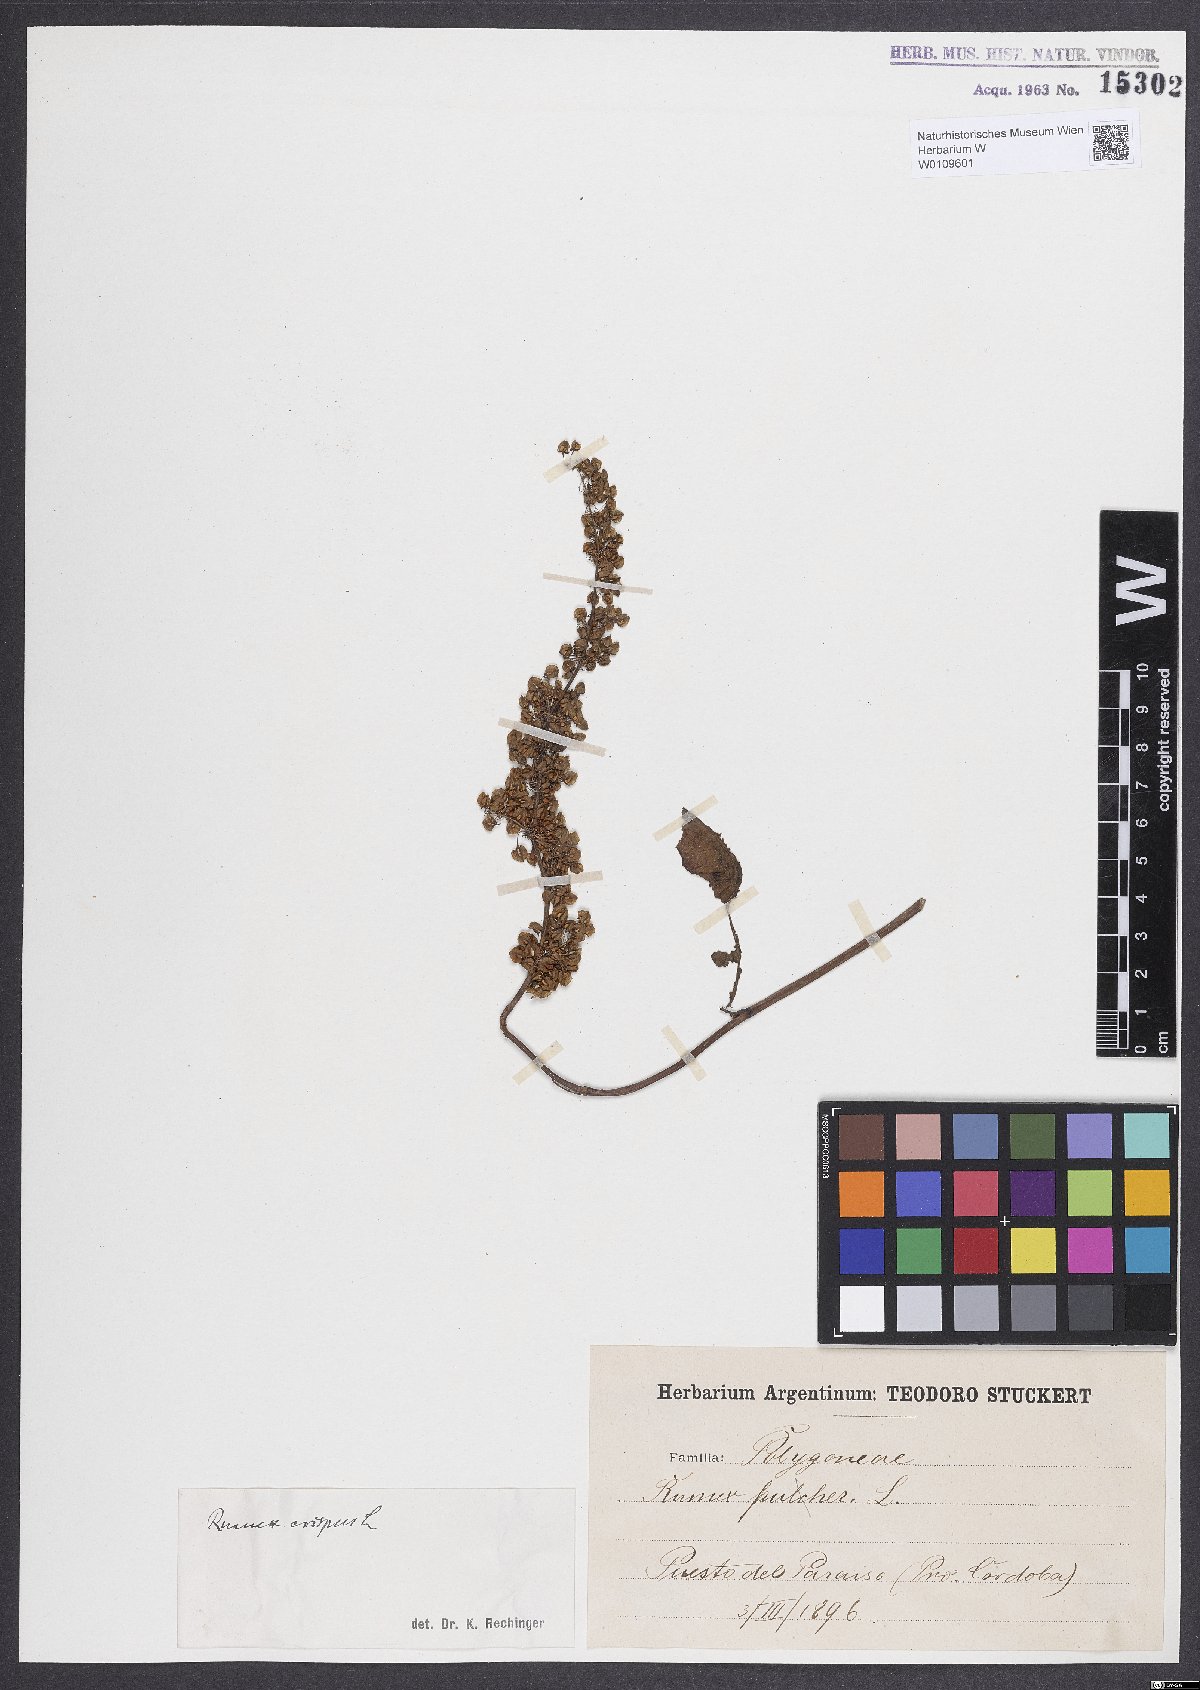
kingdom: Plantae
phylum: Tracheophyta
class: Magnoliopsida
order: Caryophyllales
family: Polygonaceae
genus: Rumex
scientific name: Rumex crispus
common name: Curled dock
